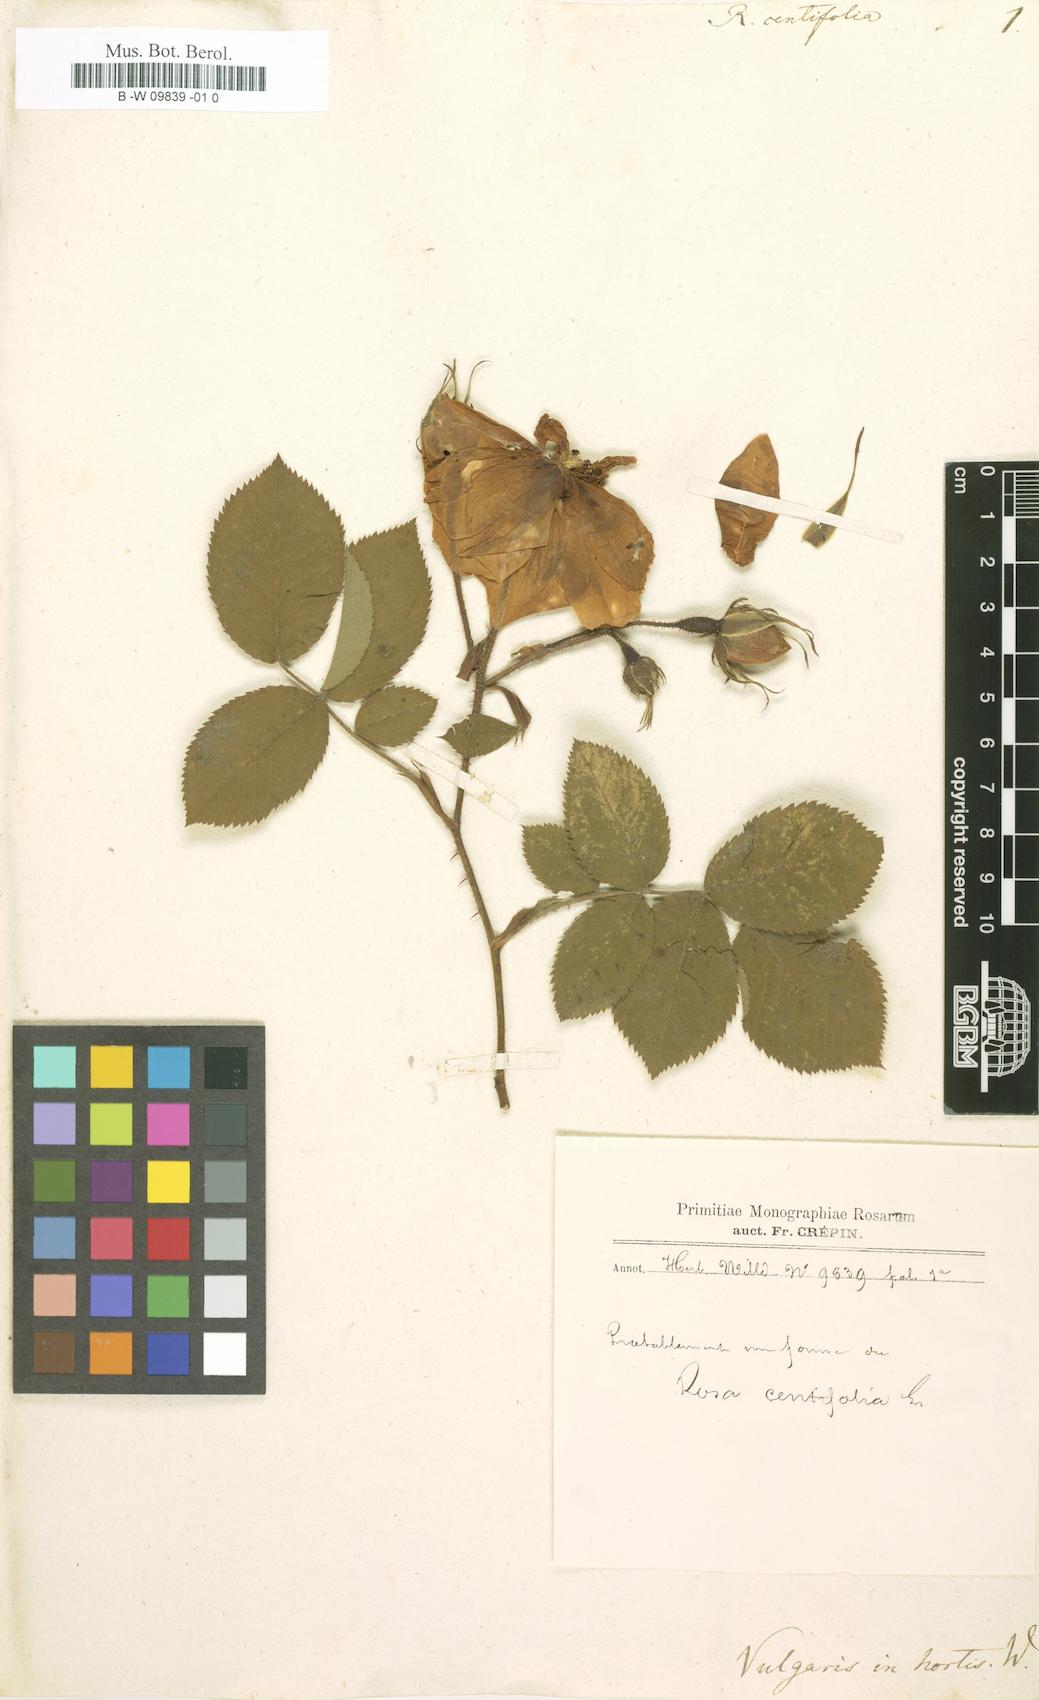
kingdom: Plantae
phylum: Tracheophyta
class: Magnoliopsida
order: Rosales
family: Rosaceae
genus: Rosa
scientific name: Rosa centifolia
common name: Cabbage rose
